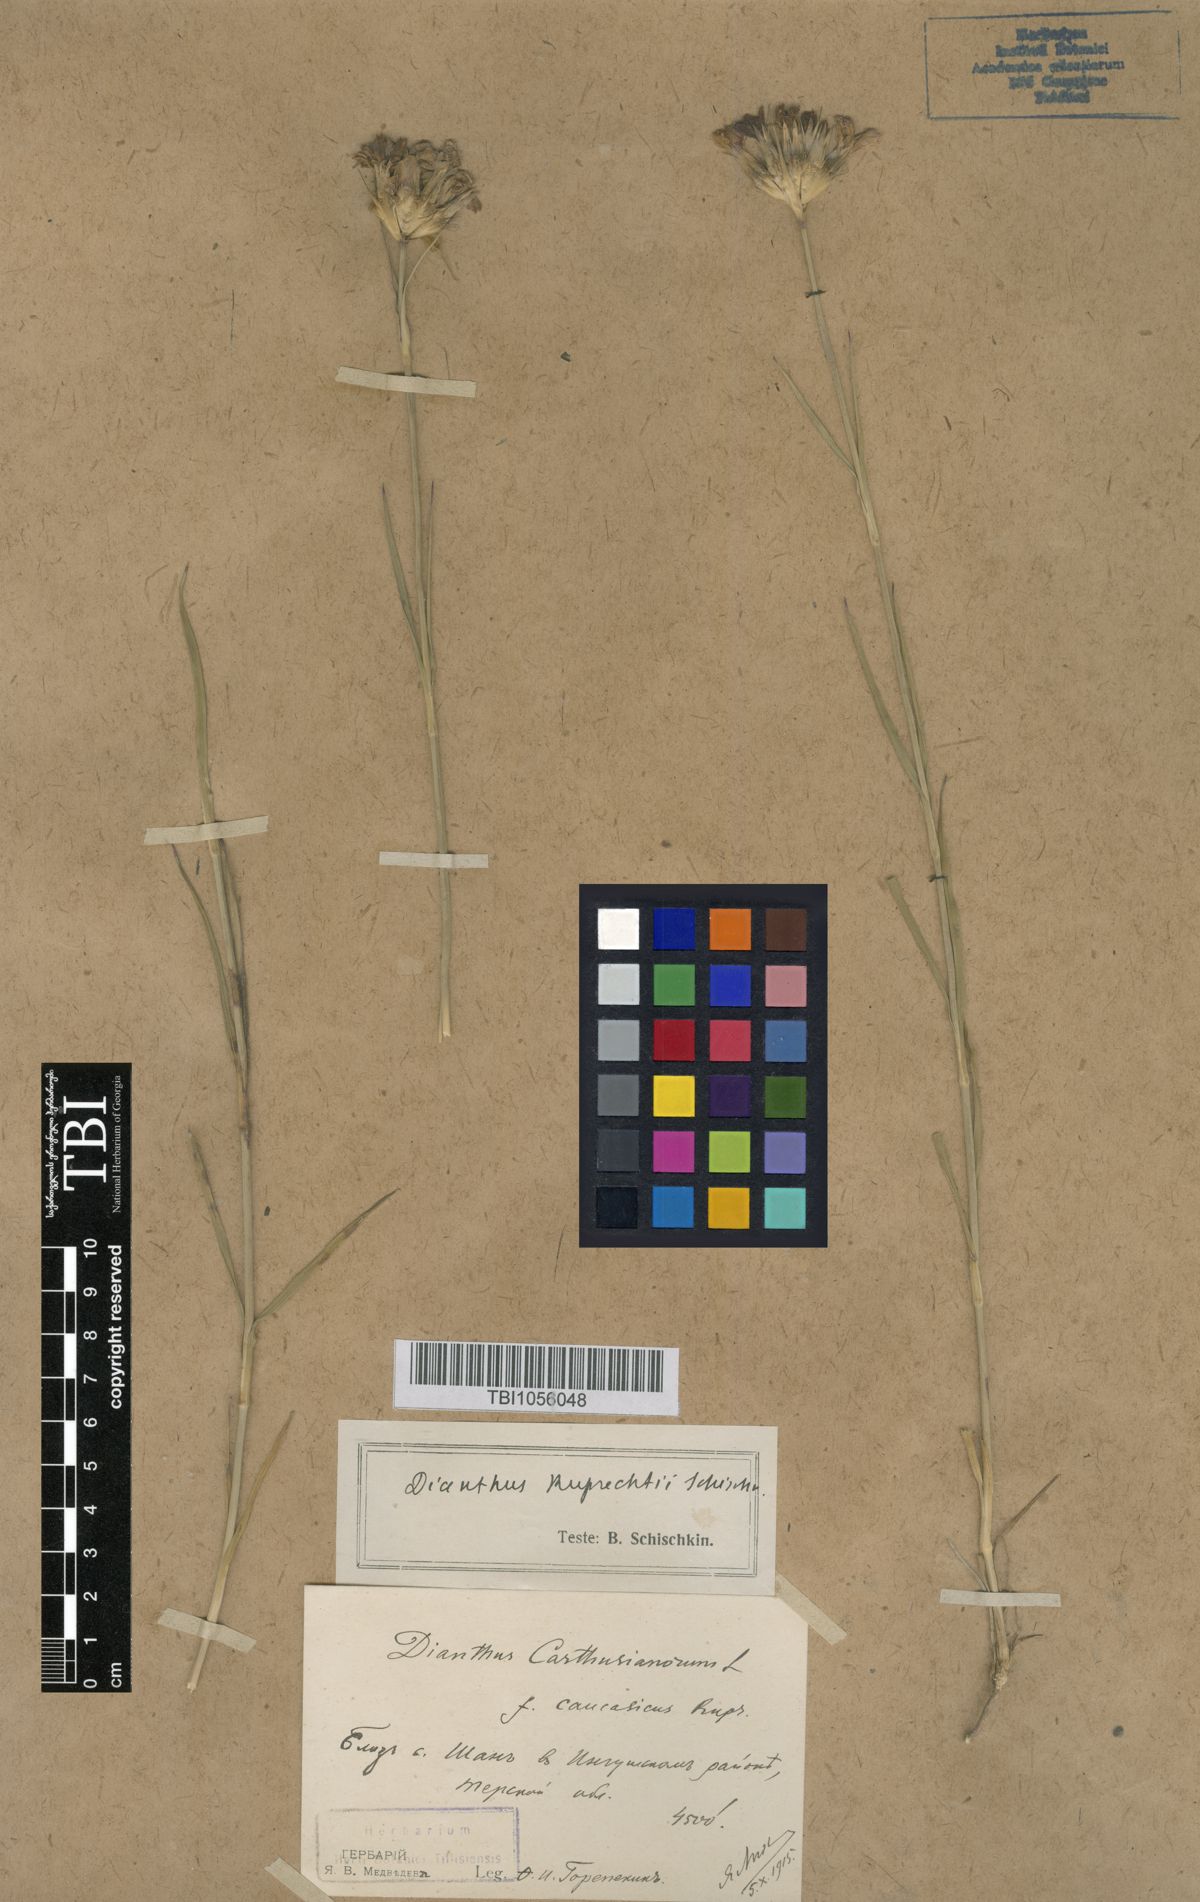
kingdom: Plantae
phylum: Tracheophyta
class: Magnoliopsida
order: Caryophyllales
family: Caryophyllaceae
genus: Dianthus
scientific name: Dianthus ruprechtii
